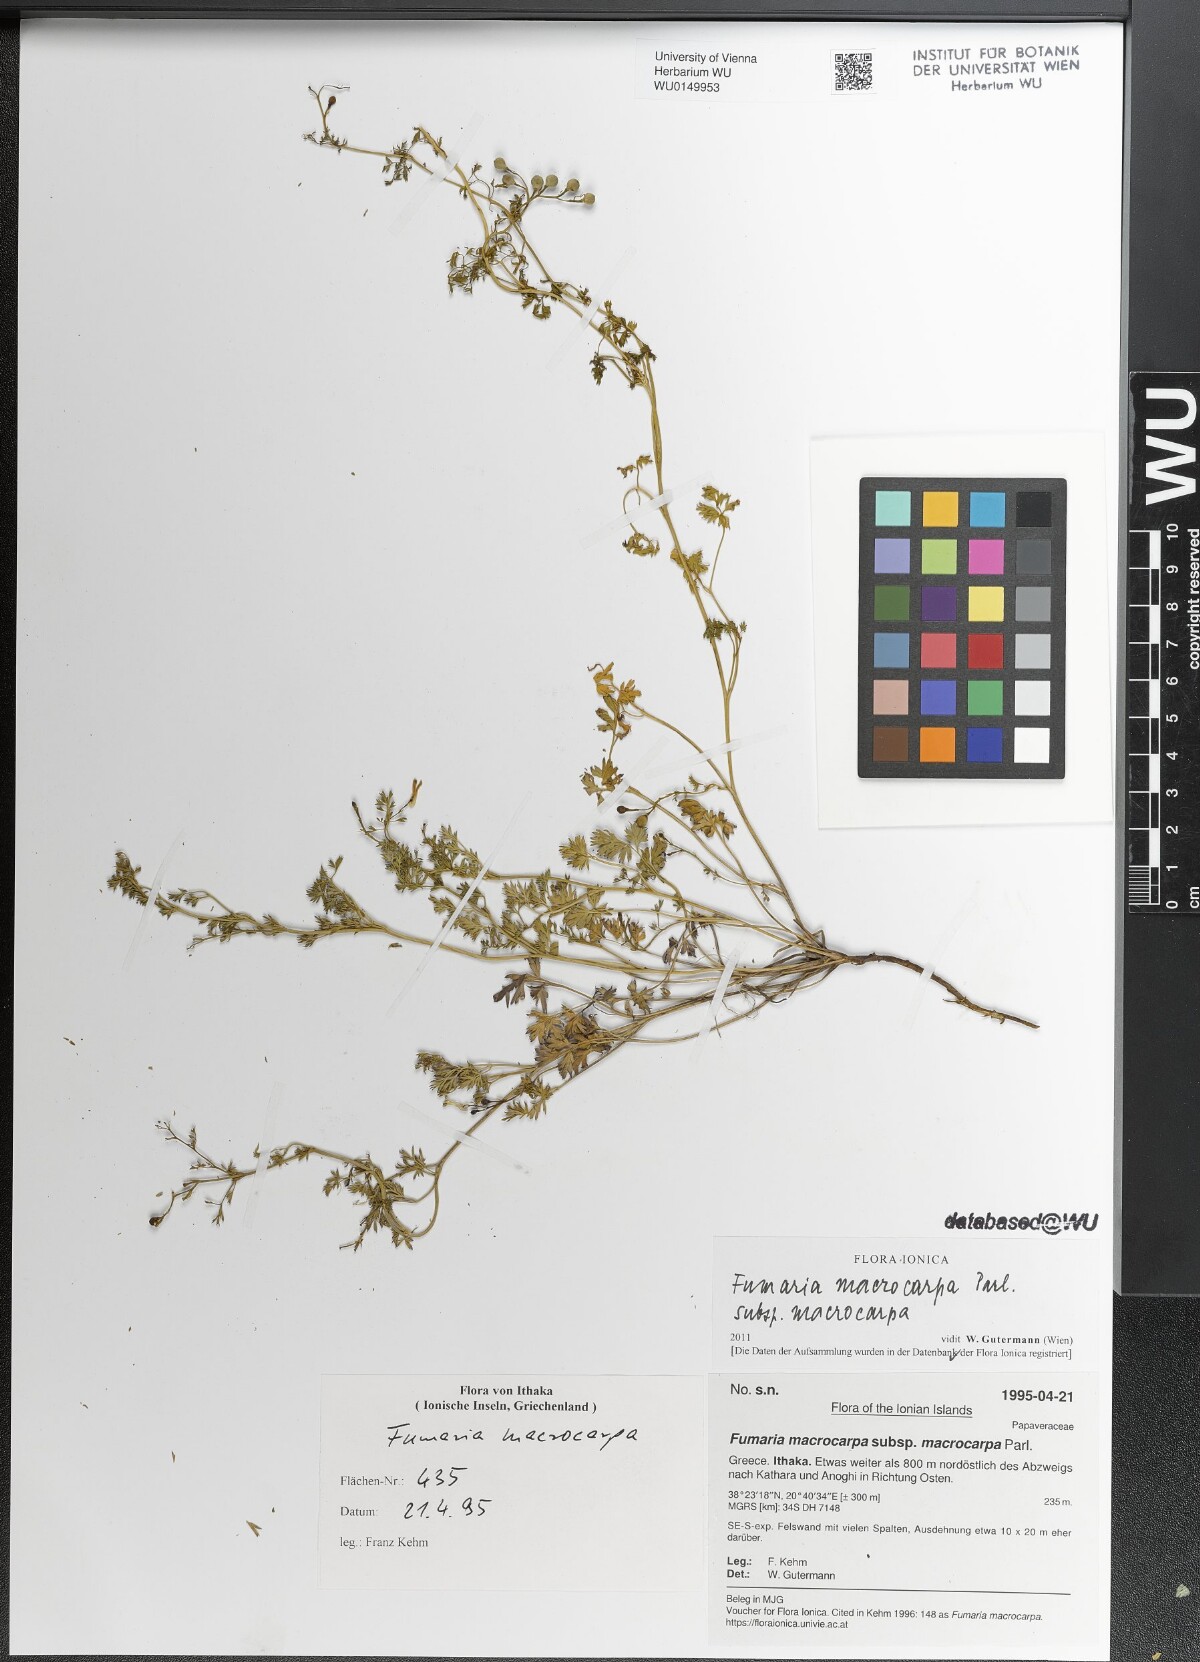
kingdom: Plantae
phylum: Tracheophyta
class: Magnoliopsida
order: Ranunculales
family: Papaveraceae
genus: Fumaria
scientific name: Fumaria macrocarpa
